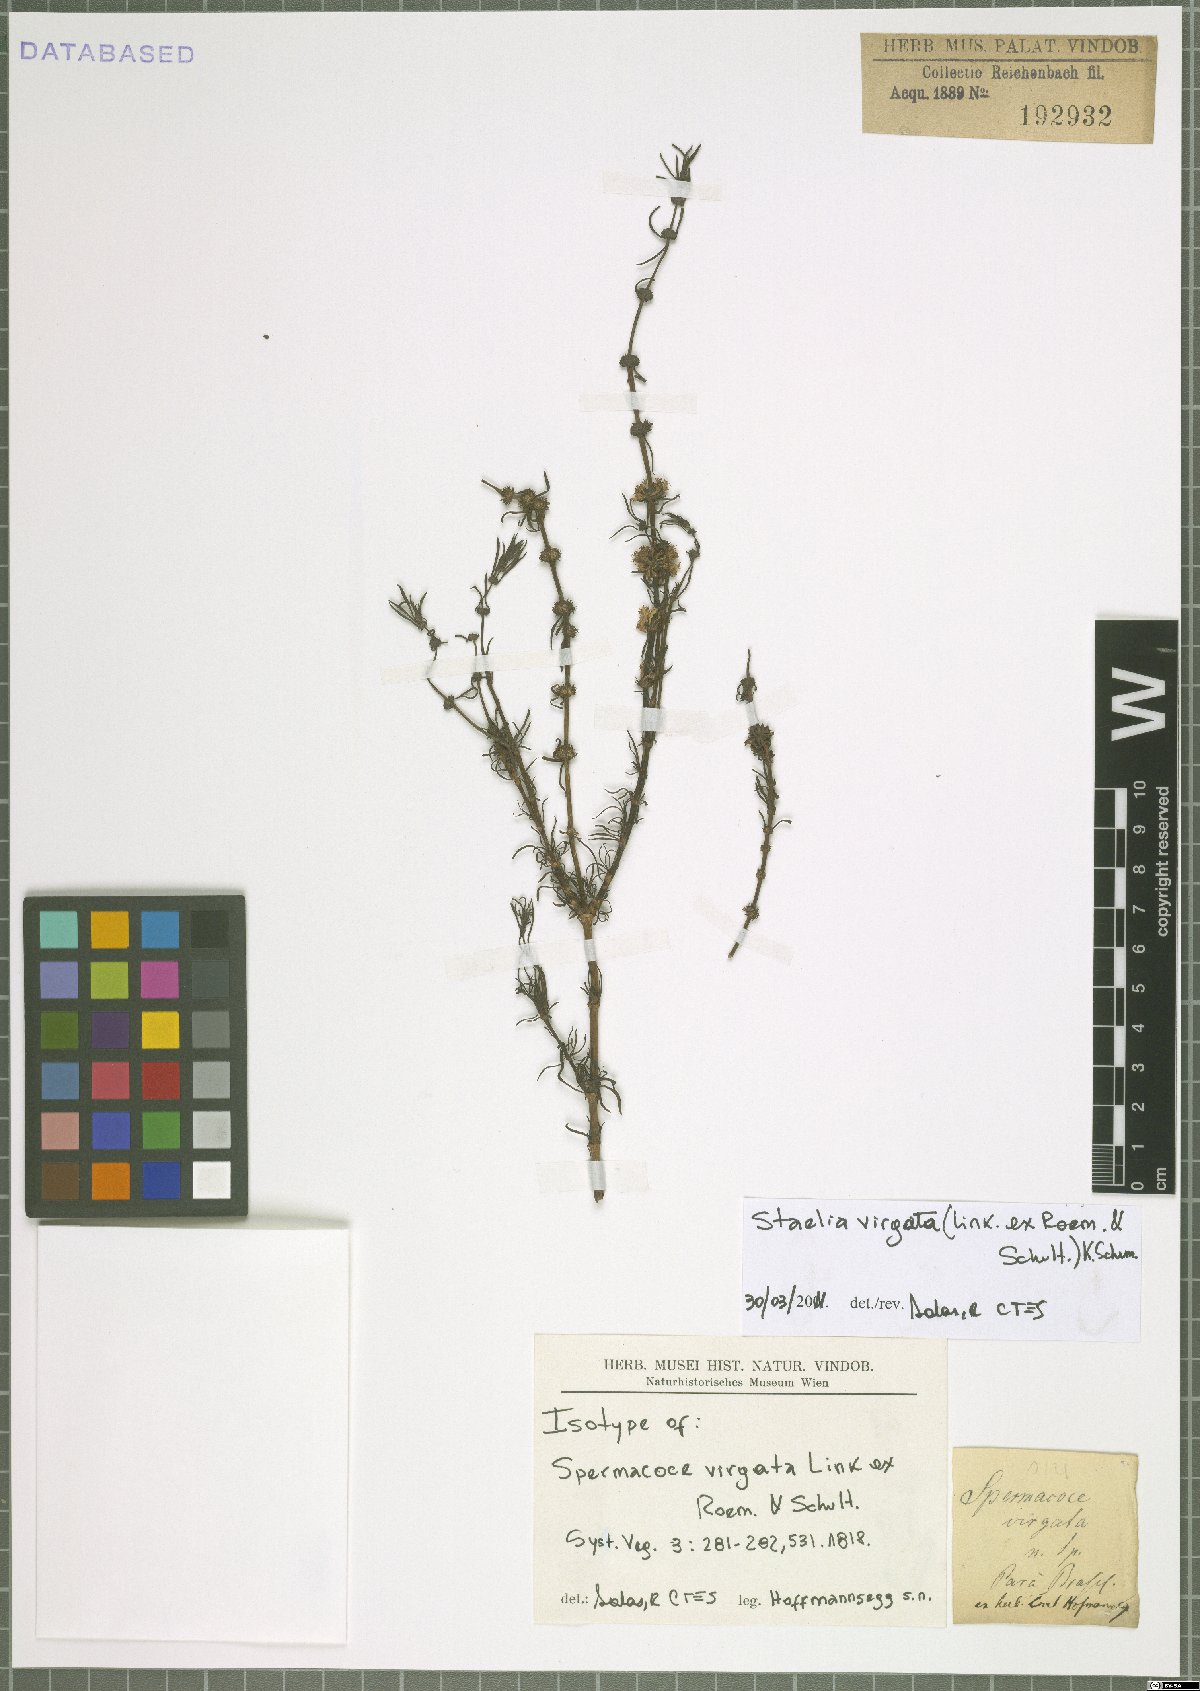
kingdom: Plantae
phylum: Tracheophyta
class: Magnoliopsida
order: Gentianales
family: Rubiaceae
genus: Staelia
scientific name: Staelia virgata
